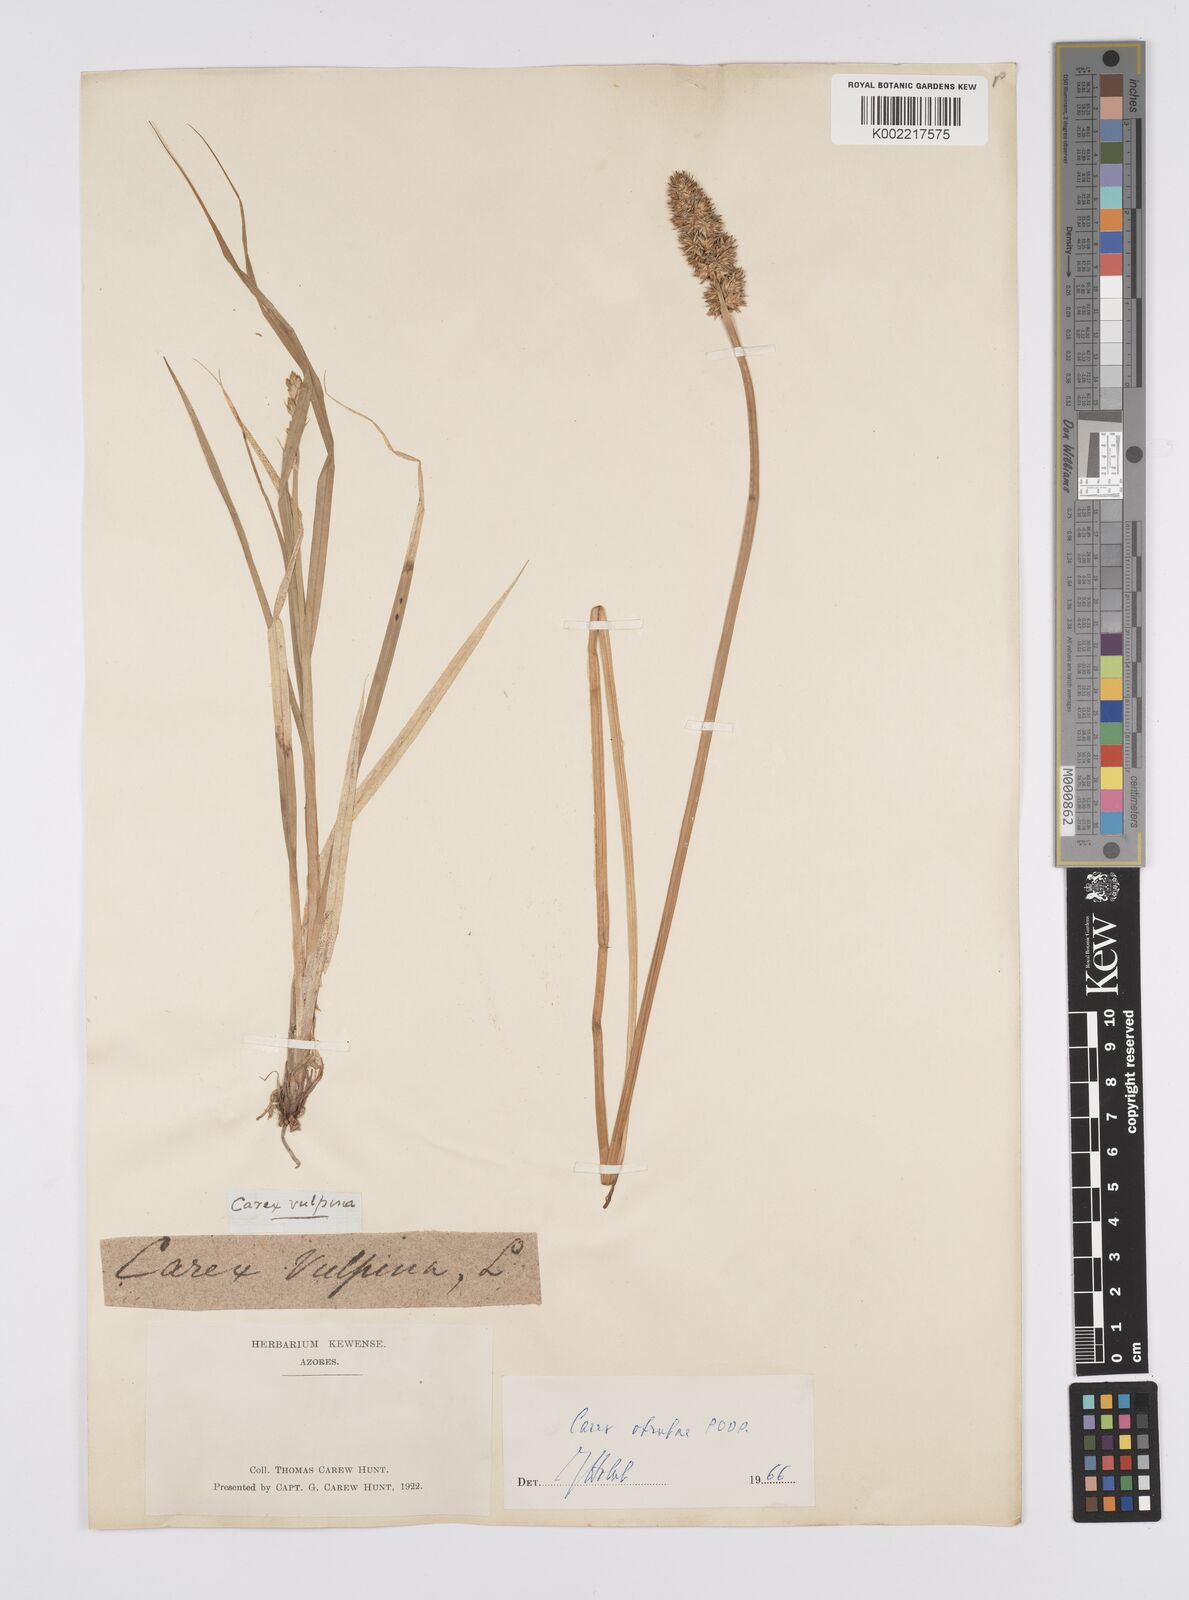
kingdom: Plantae
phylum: Tracheophyta
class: Liliopsida
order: Poales
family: Cyperaceae
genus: Carex
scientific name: Carex vulpina
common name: True fox-sedge
